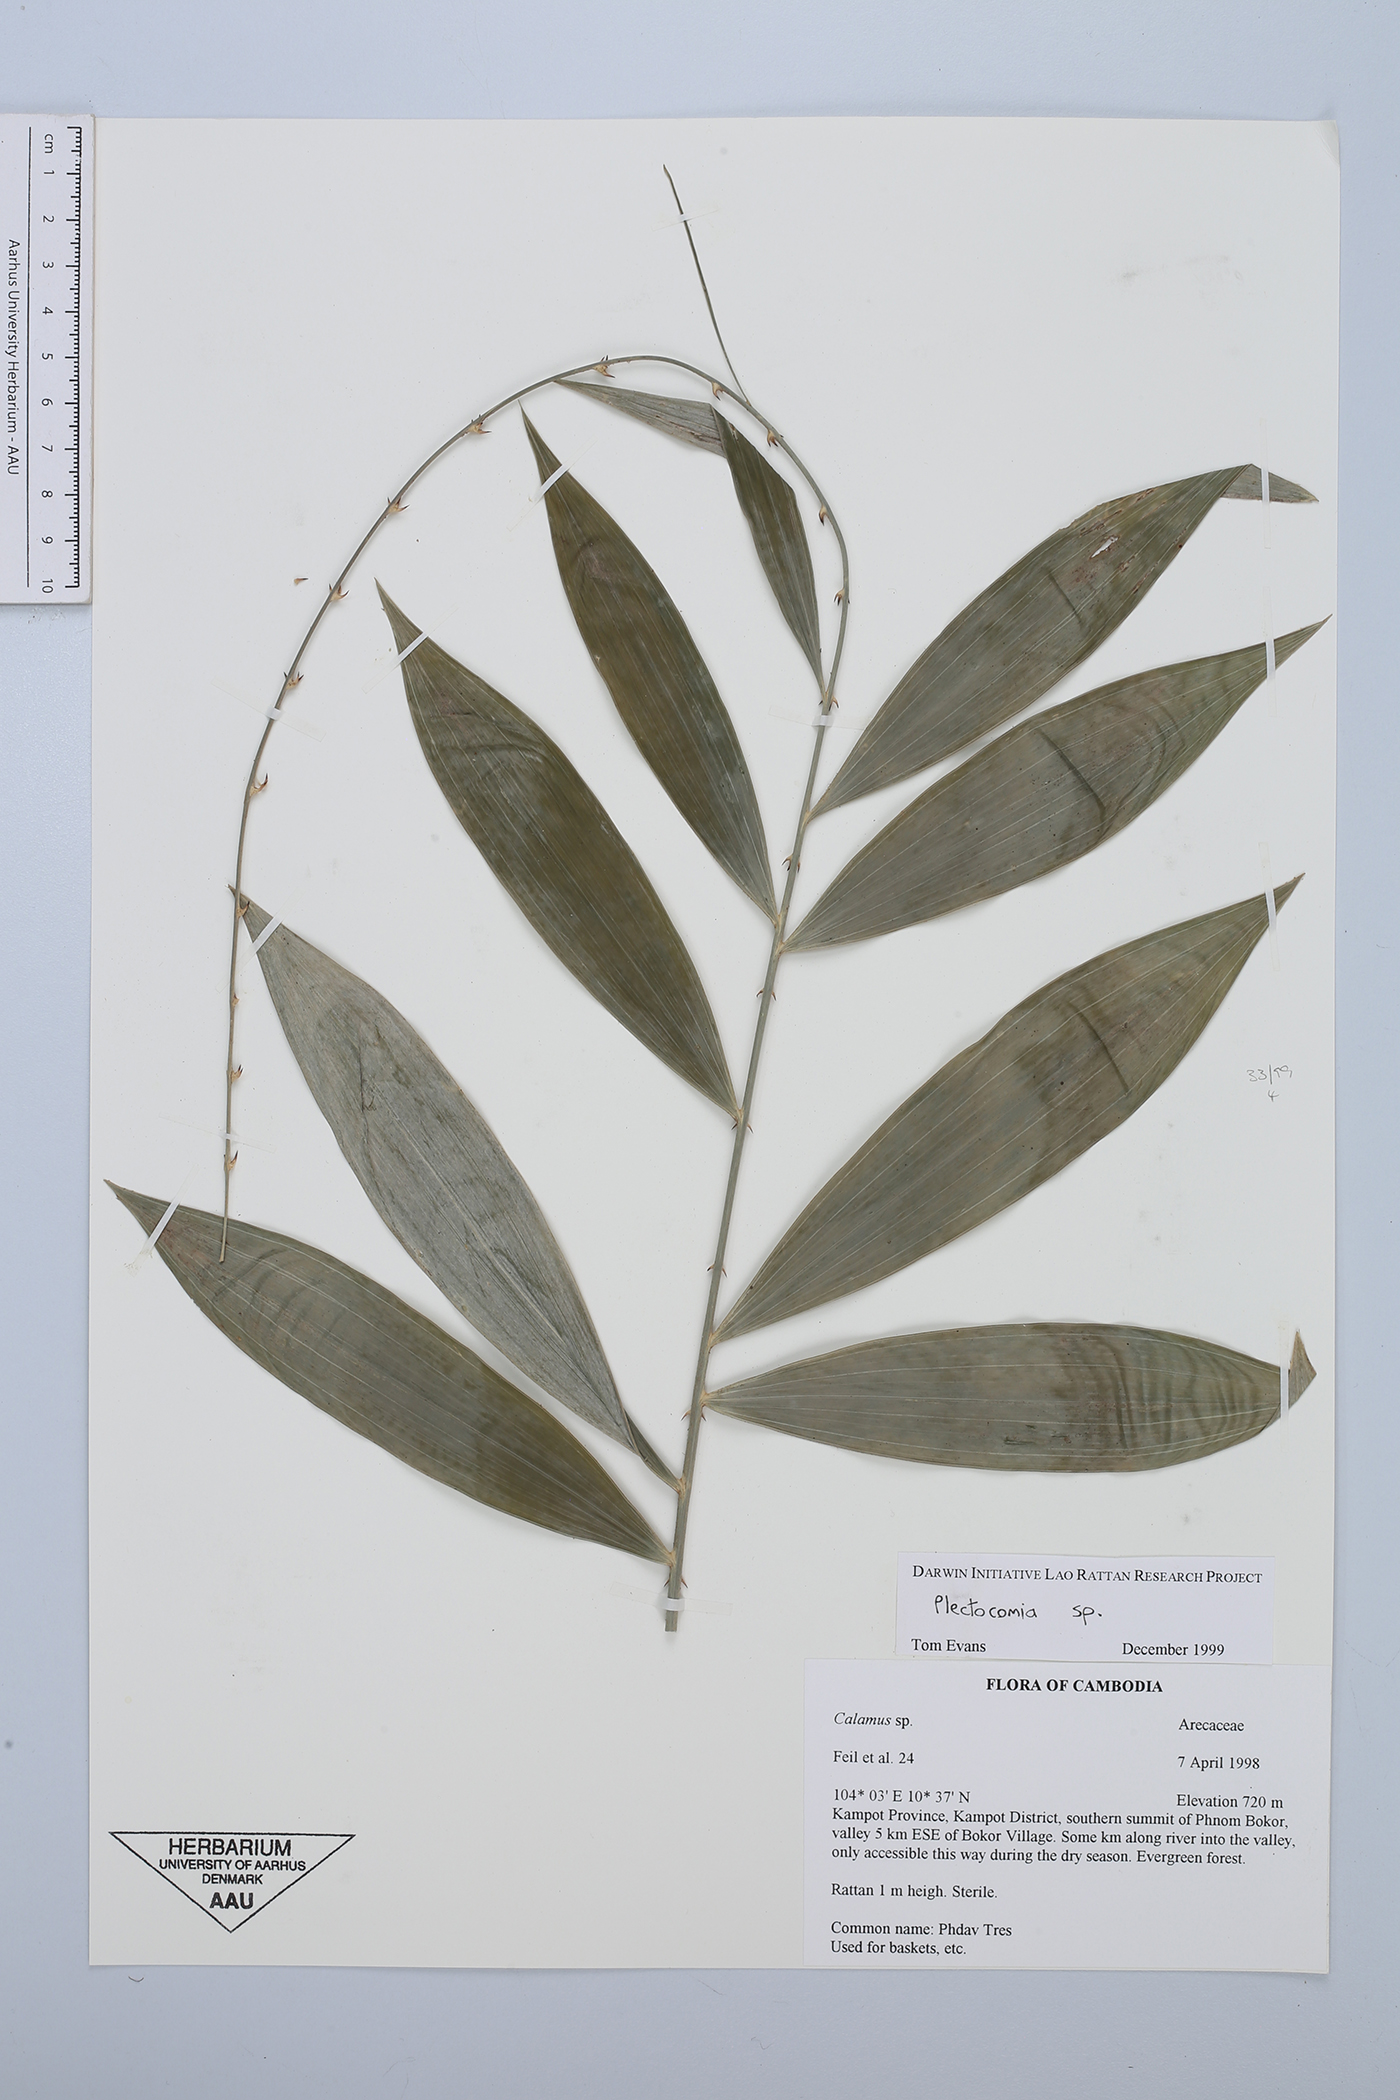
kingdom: Plantae
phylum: Tracheophyta
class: Liliopsida
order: Arecales
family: Arecaceae
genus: Plectocomia
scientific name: Plectocomia
